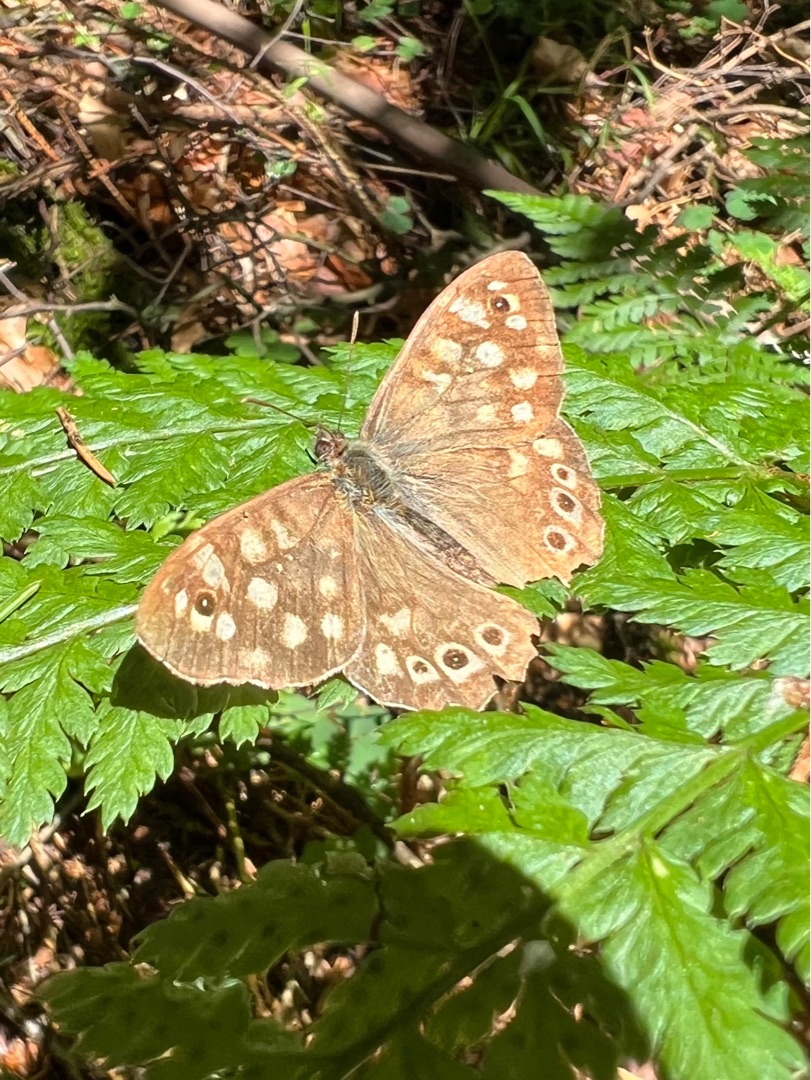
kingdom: Animalia
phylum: Arthropoda
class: Insecta
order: Lepidoptera
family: Nymphalidae
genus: Pararge
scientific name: Pararge aegeria
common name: Skovrandøje
